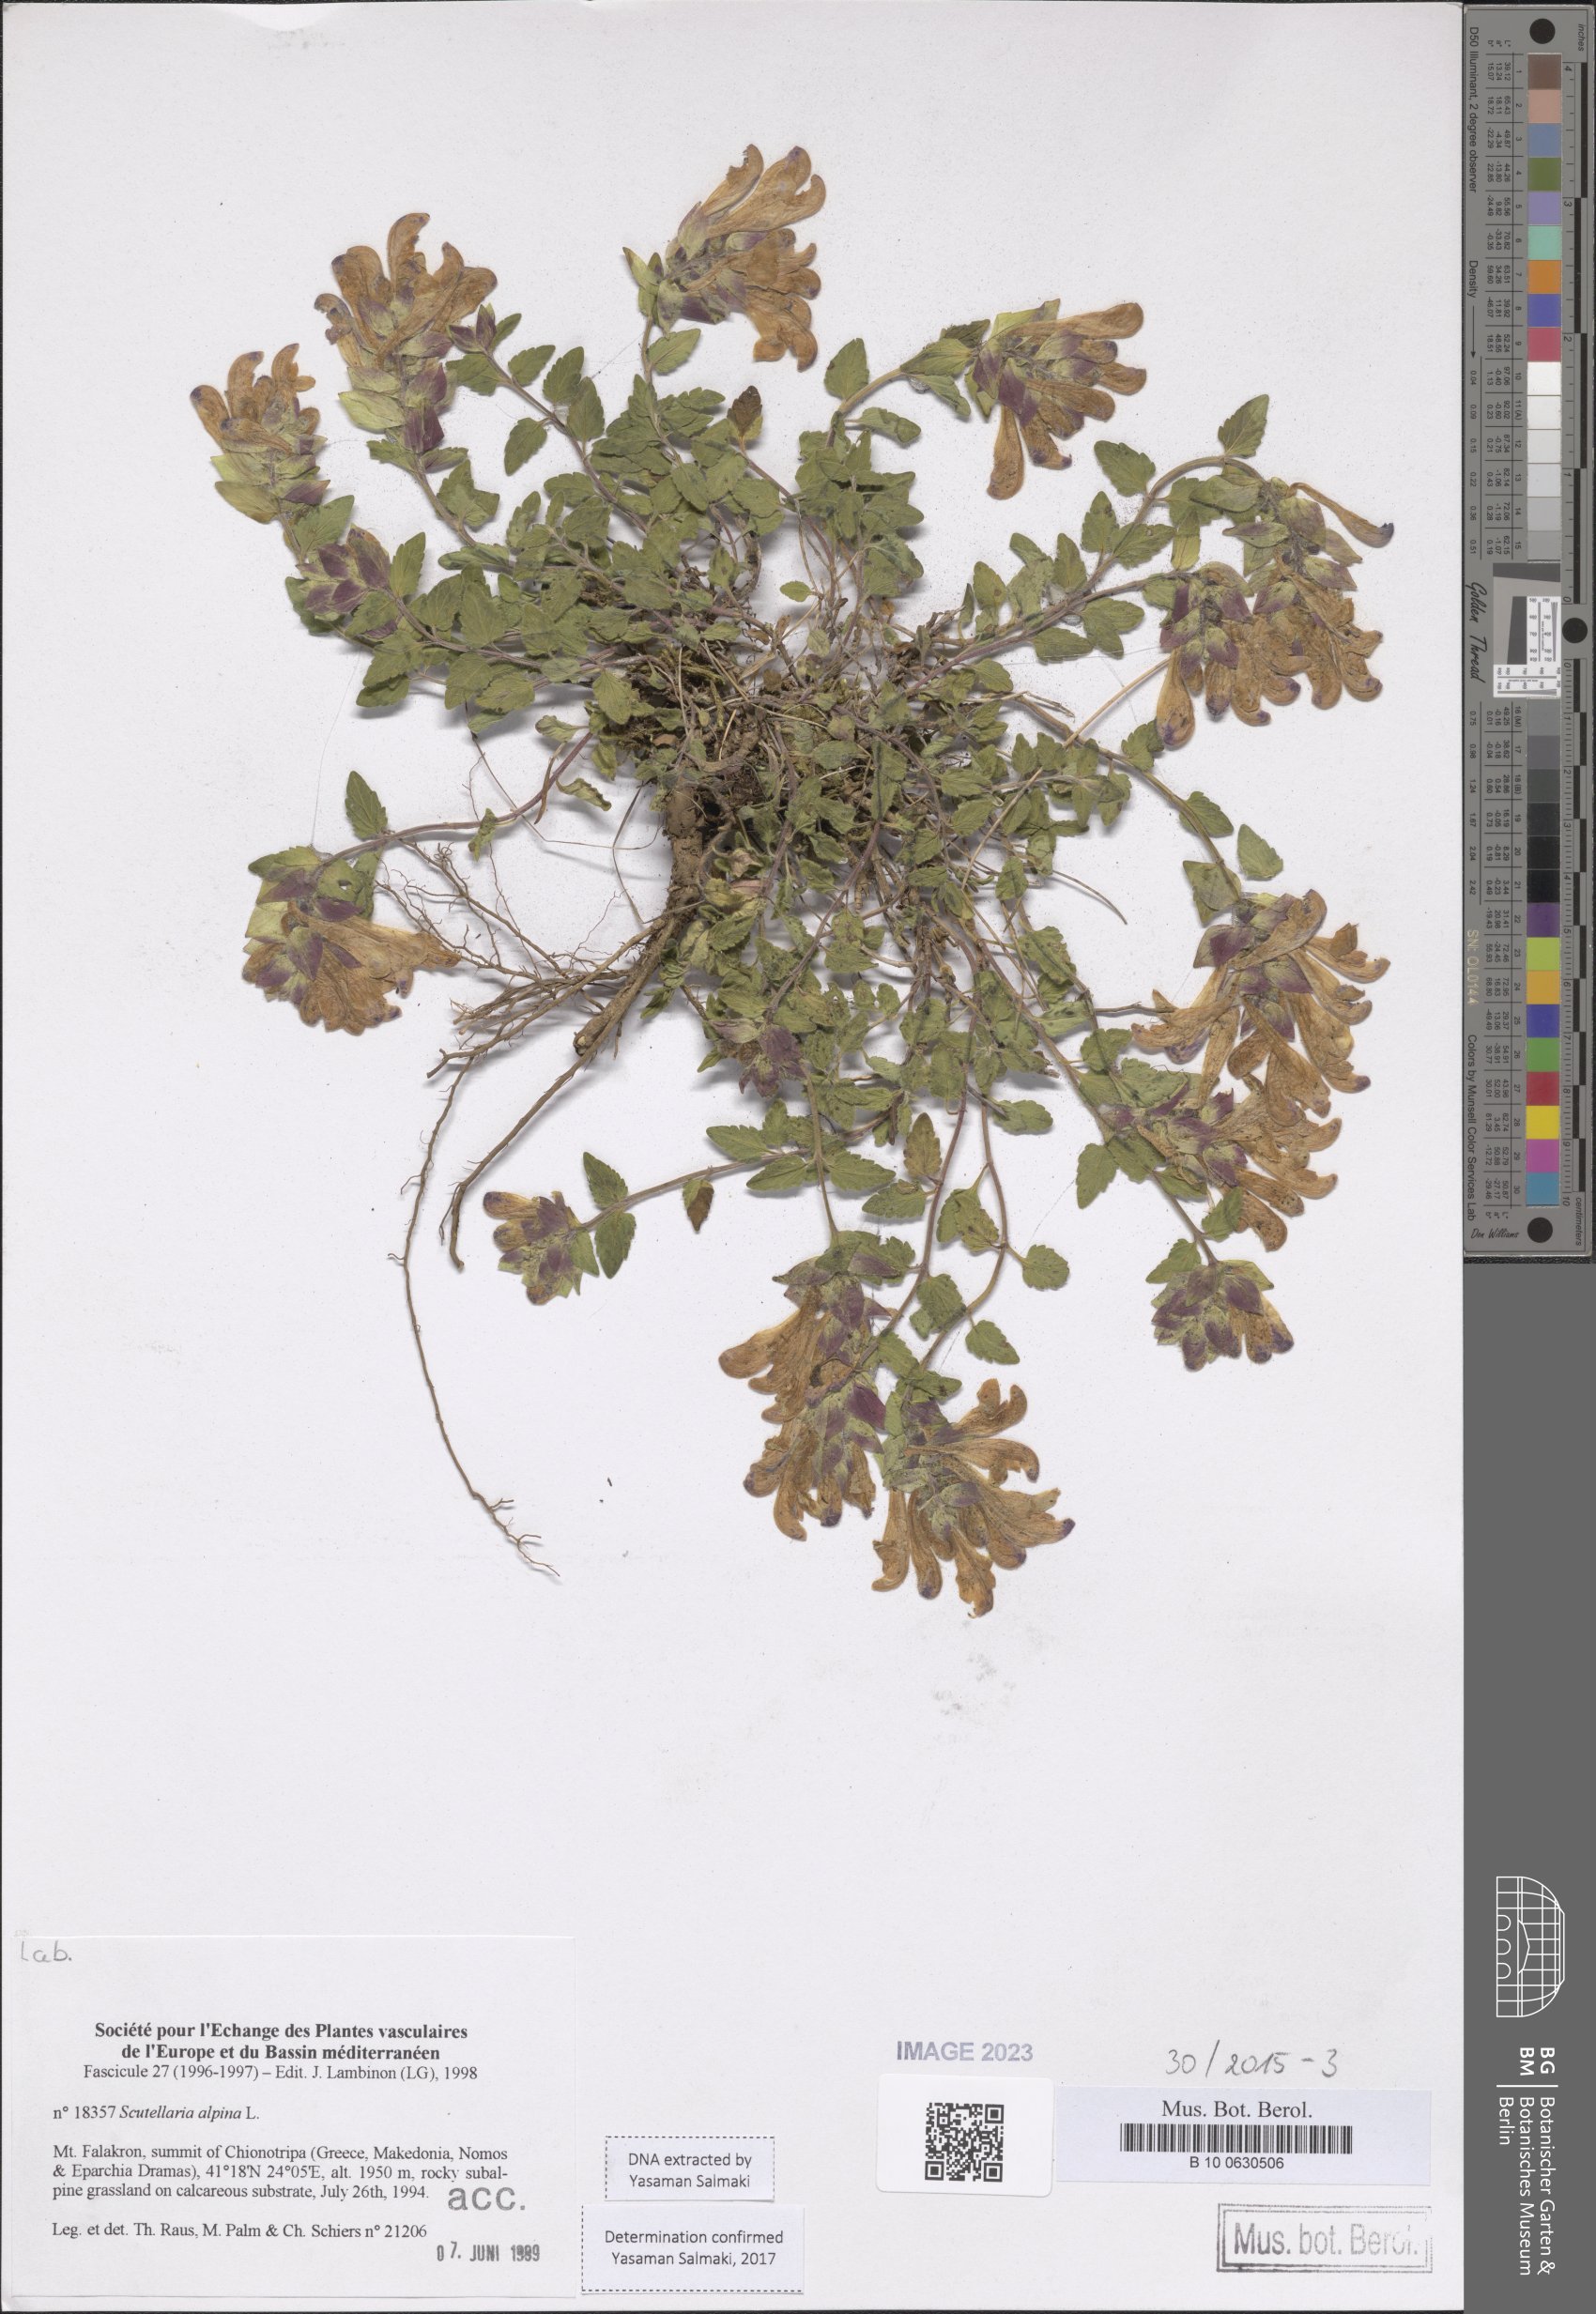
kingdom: Plantae
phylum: Tracheophyta
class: Magnoliopsida
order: Lamiales
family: Lamiaceae
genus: Scutellaria
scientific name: Scutellaria alpina
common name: Alpine scullcap
